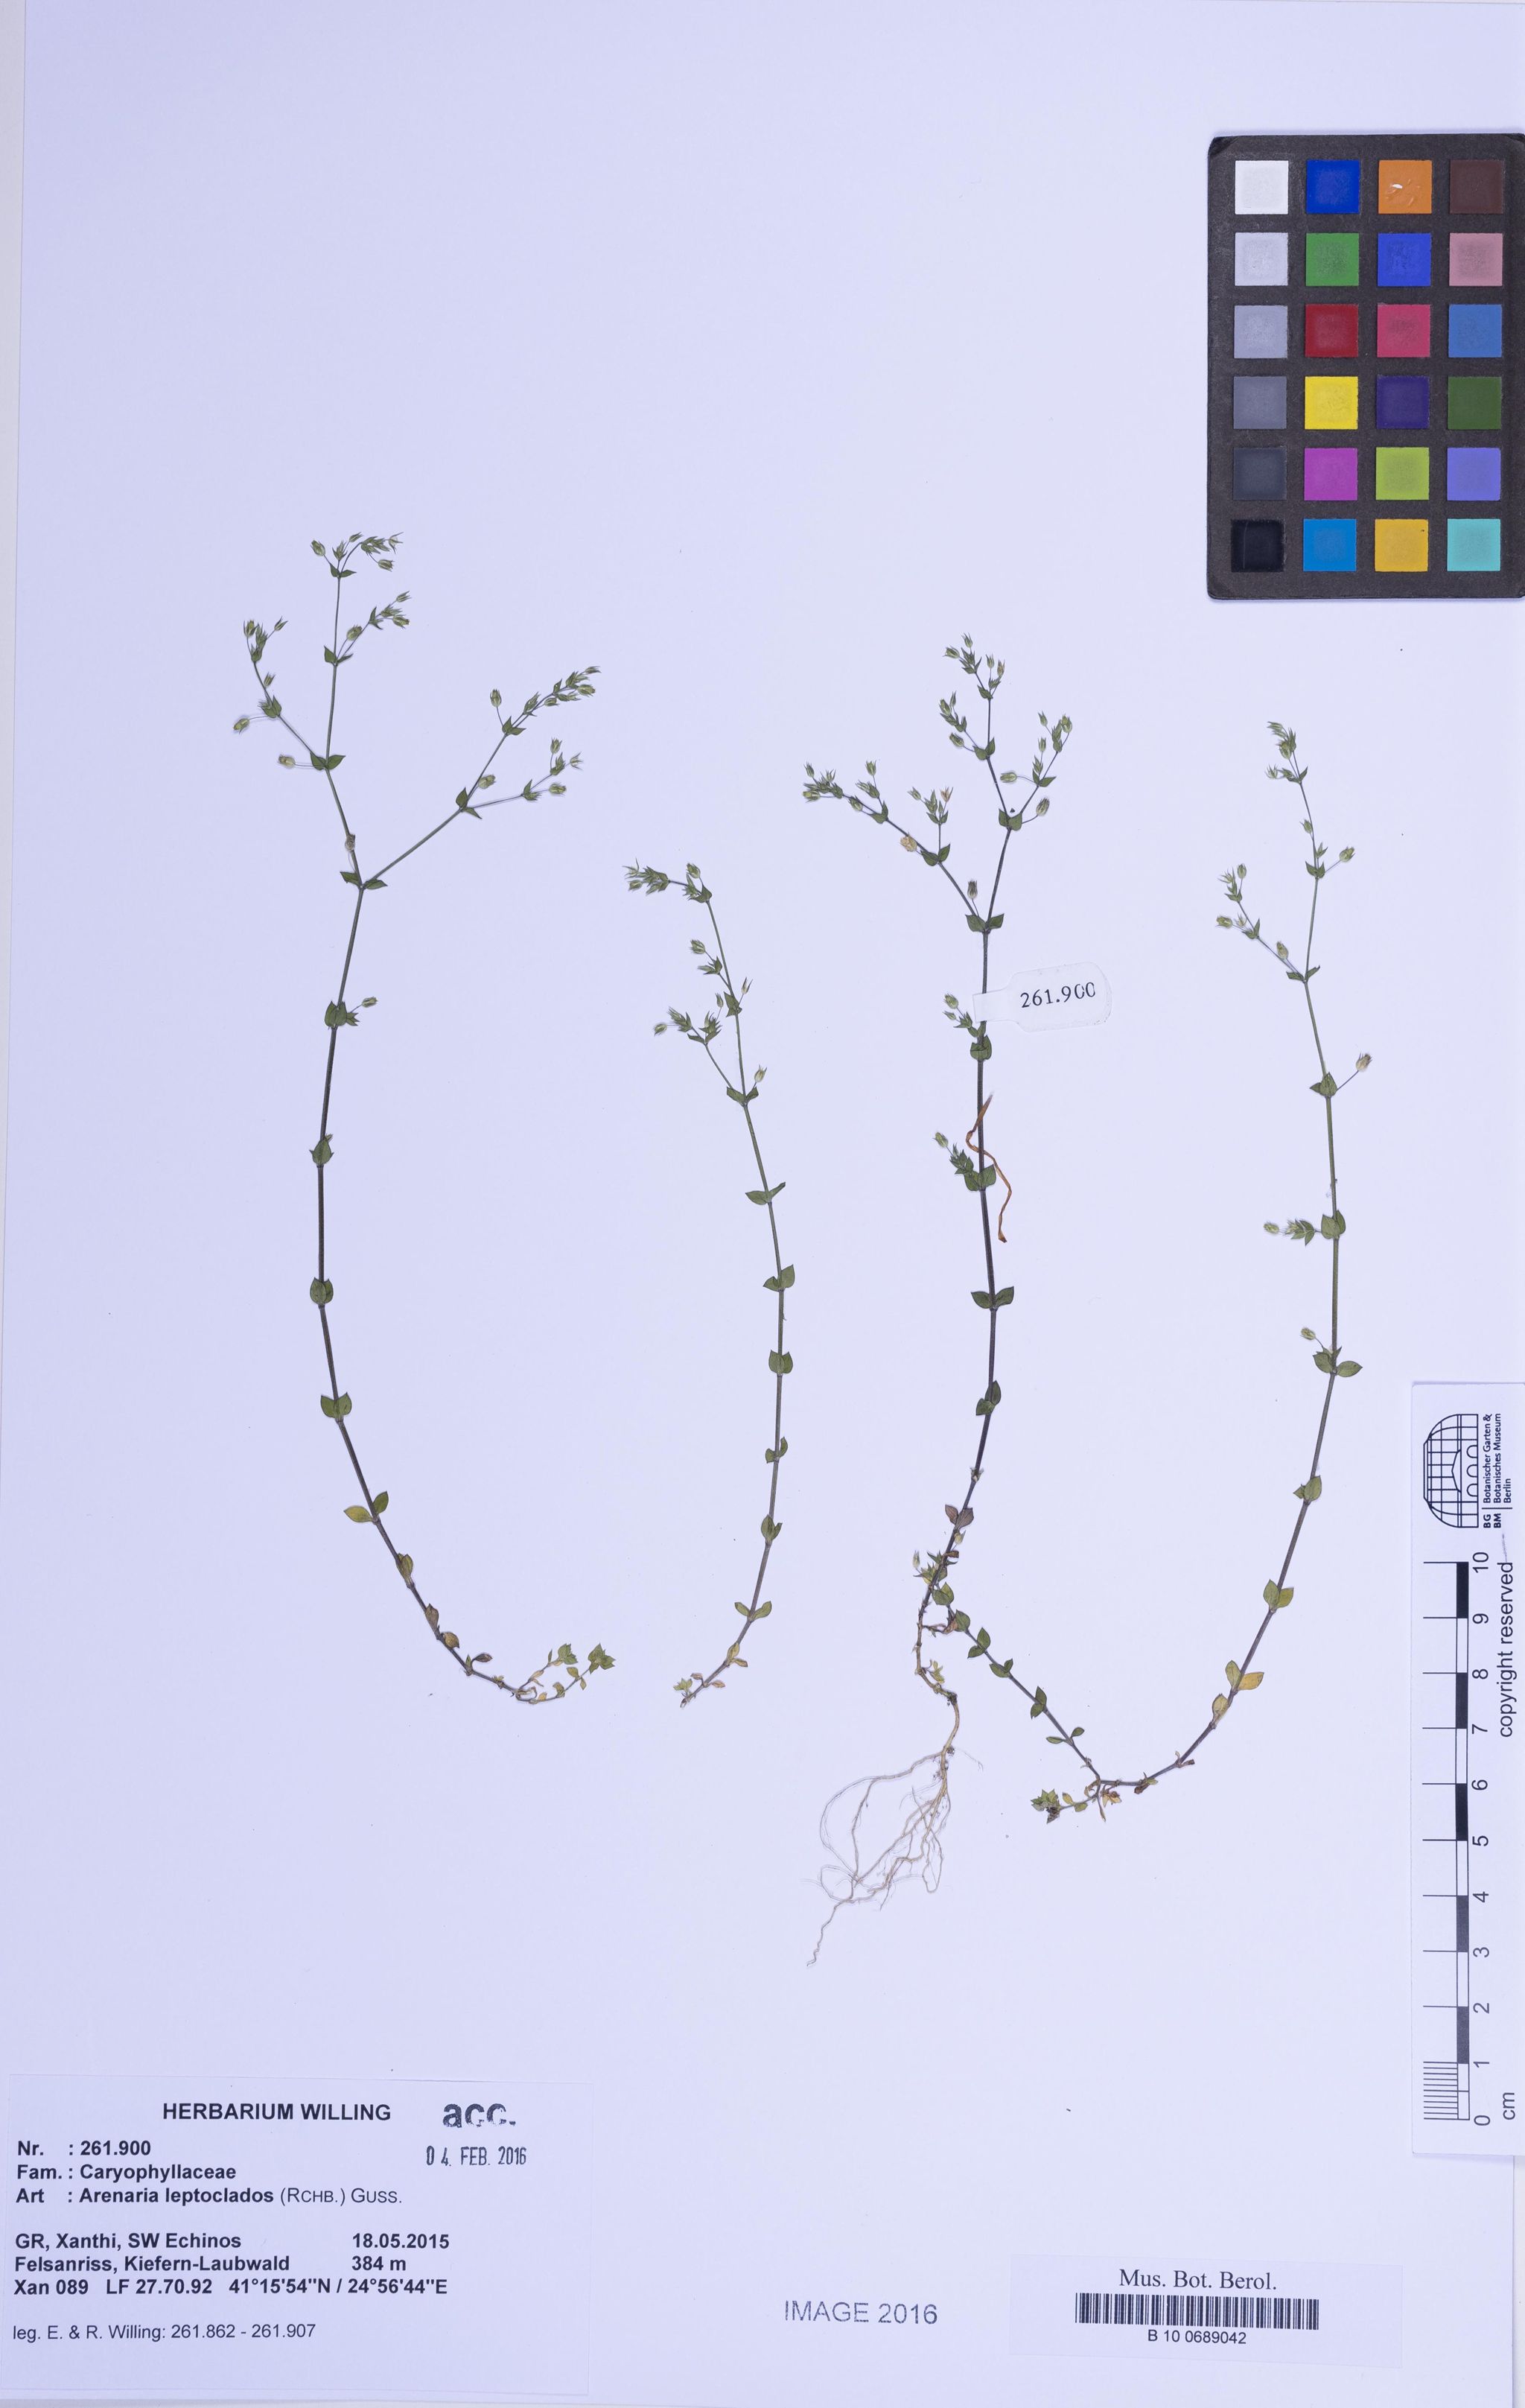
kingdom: Plantae
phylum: Tracheophyta
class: Magnoliopsida
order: Caryophyllales
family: Caryophyllaceae
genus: Arenaria
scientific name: Arenaria leptoclados
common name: Thyme-leaved sandwort
